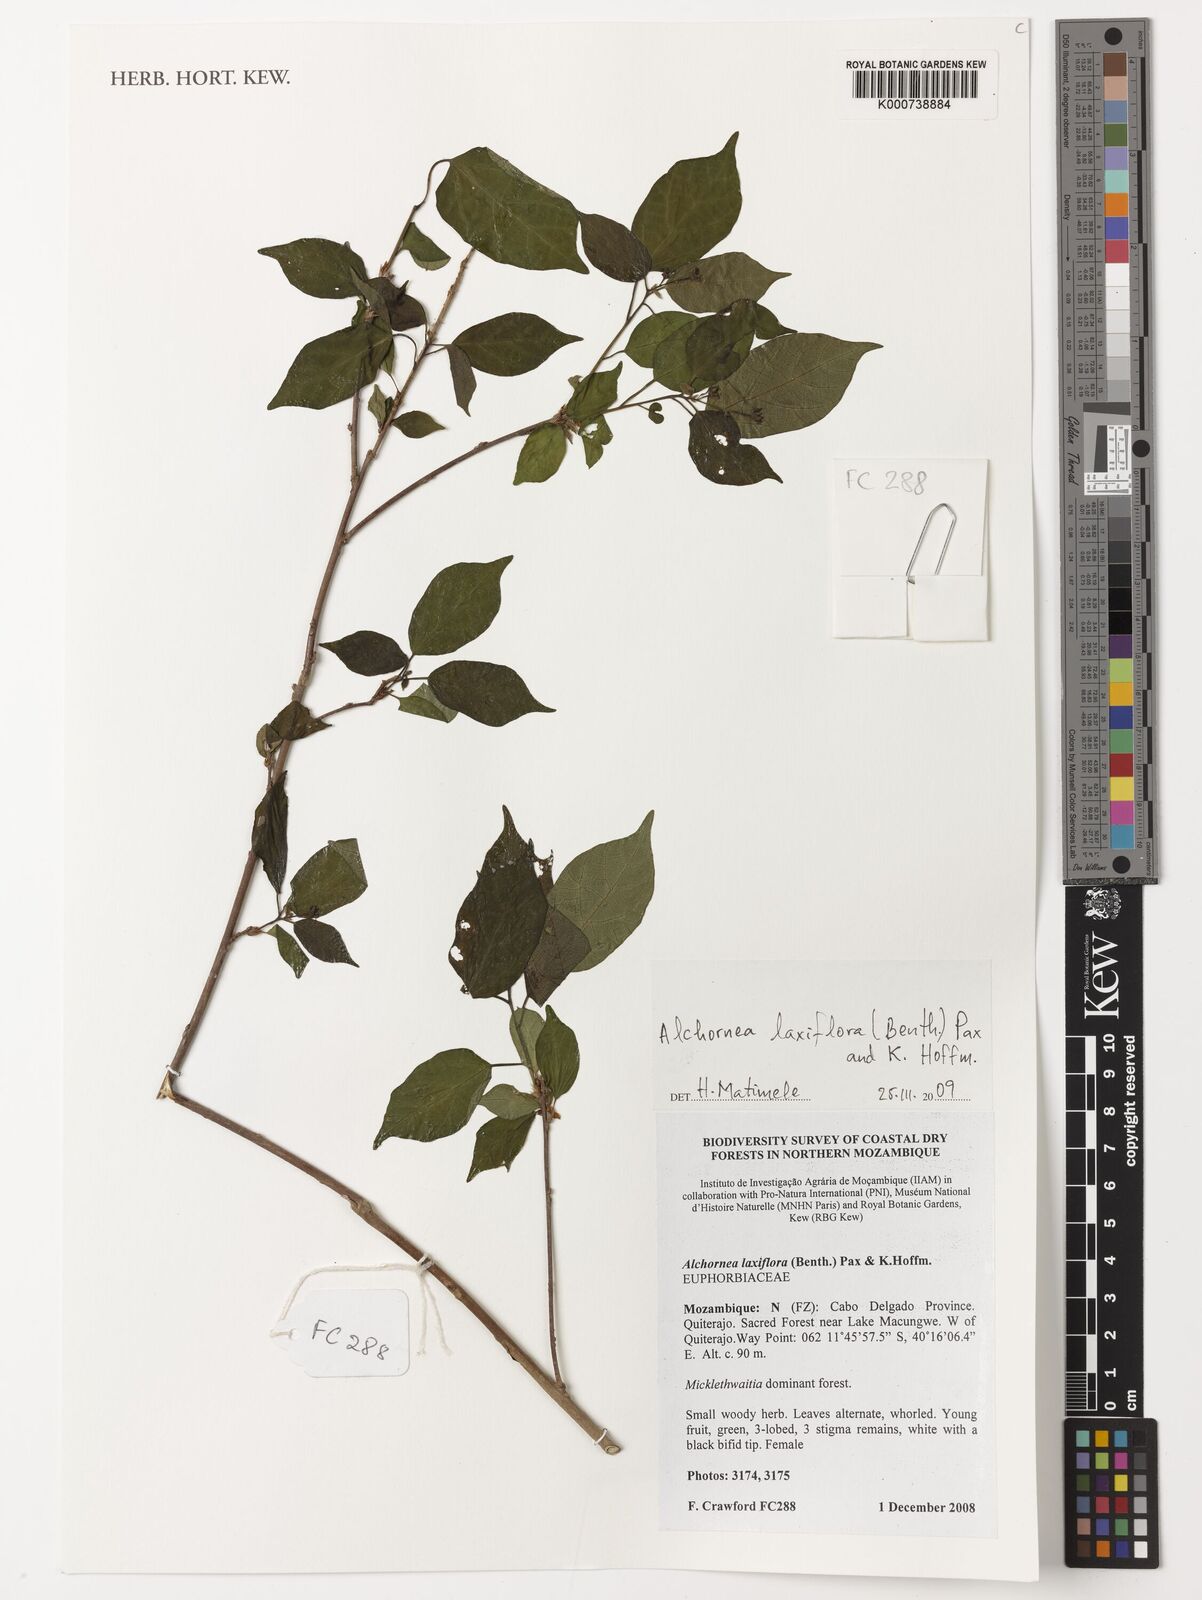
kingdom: Plantae
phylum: Tracheophyta
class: Magnoliopsida
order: Malpighiales
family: Euphorbiaceae
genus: Alchornea
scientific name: Alchornea laxiflora
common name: Lowveld bead-string
